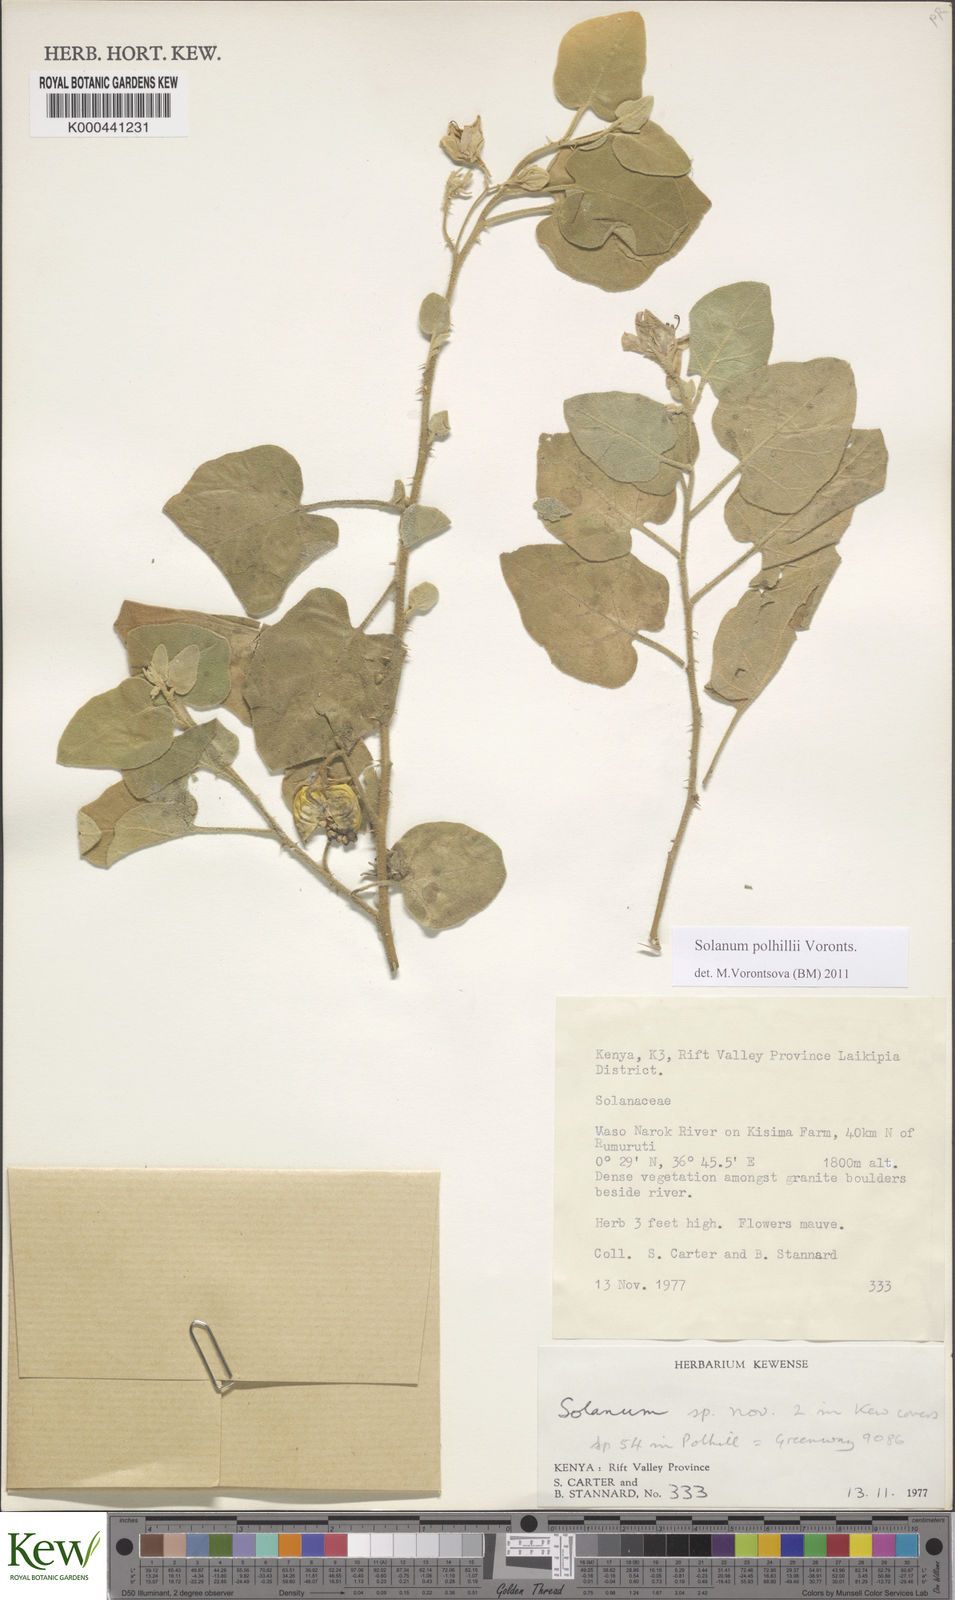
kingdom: Plantae
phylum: Tracheophyta
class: Magnoliopsida
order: Solanales
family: Solanaceae
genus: Solanum
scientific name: Solanum polhillii
